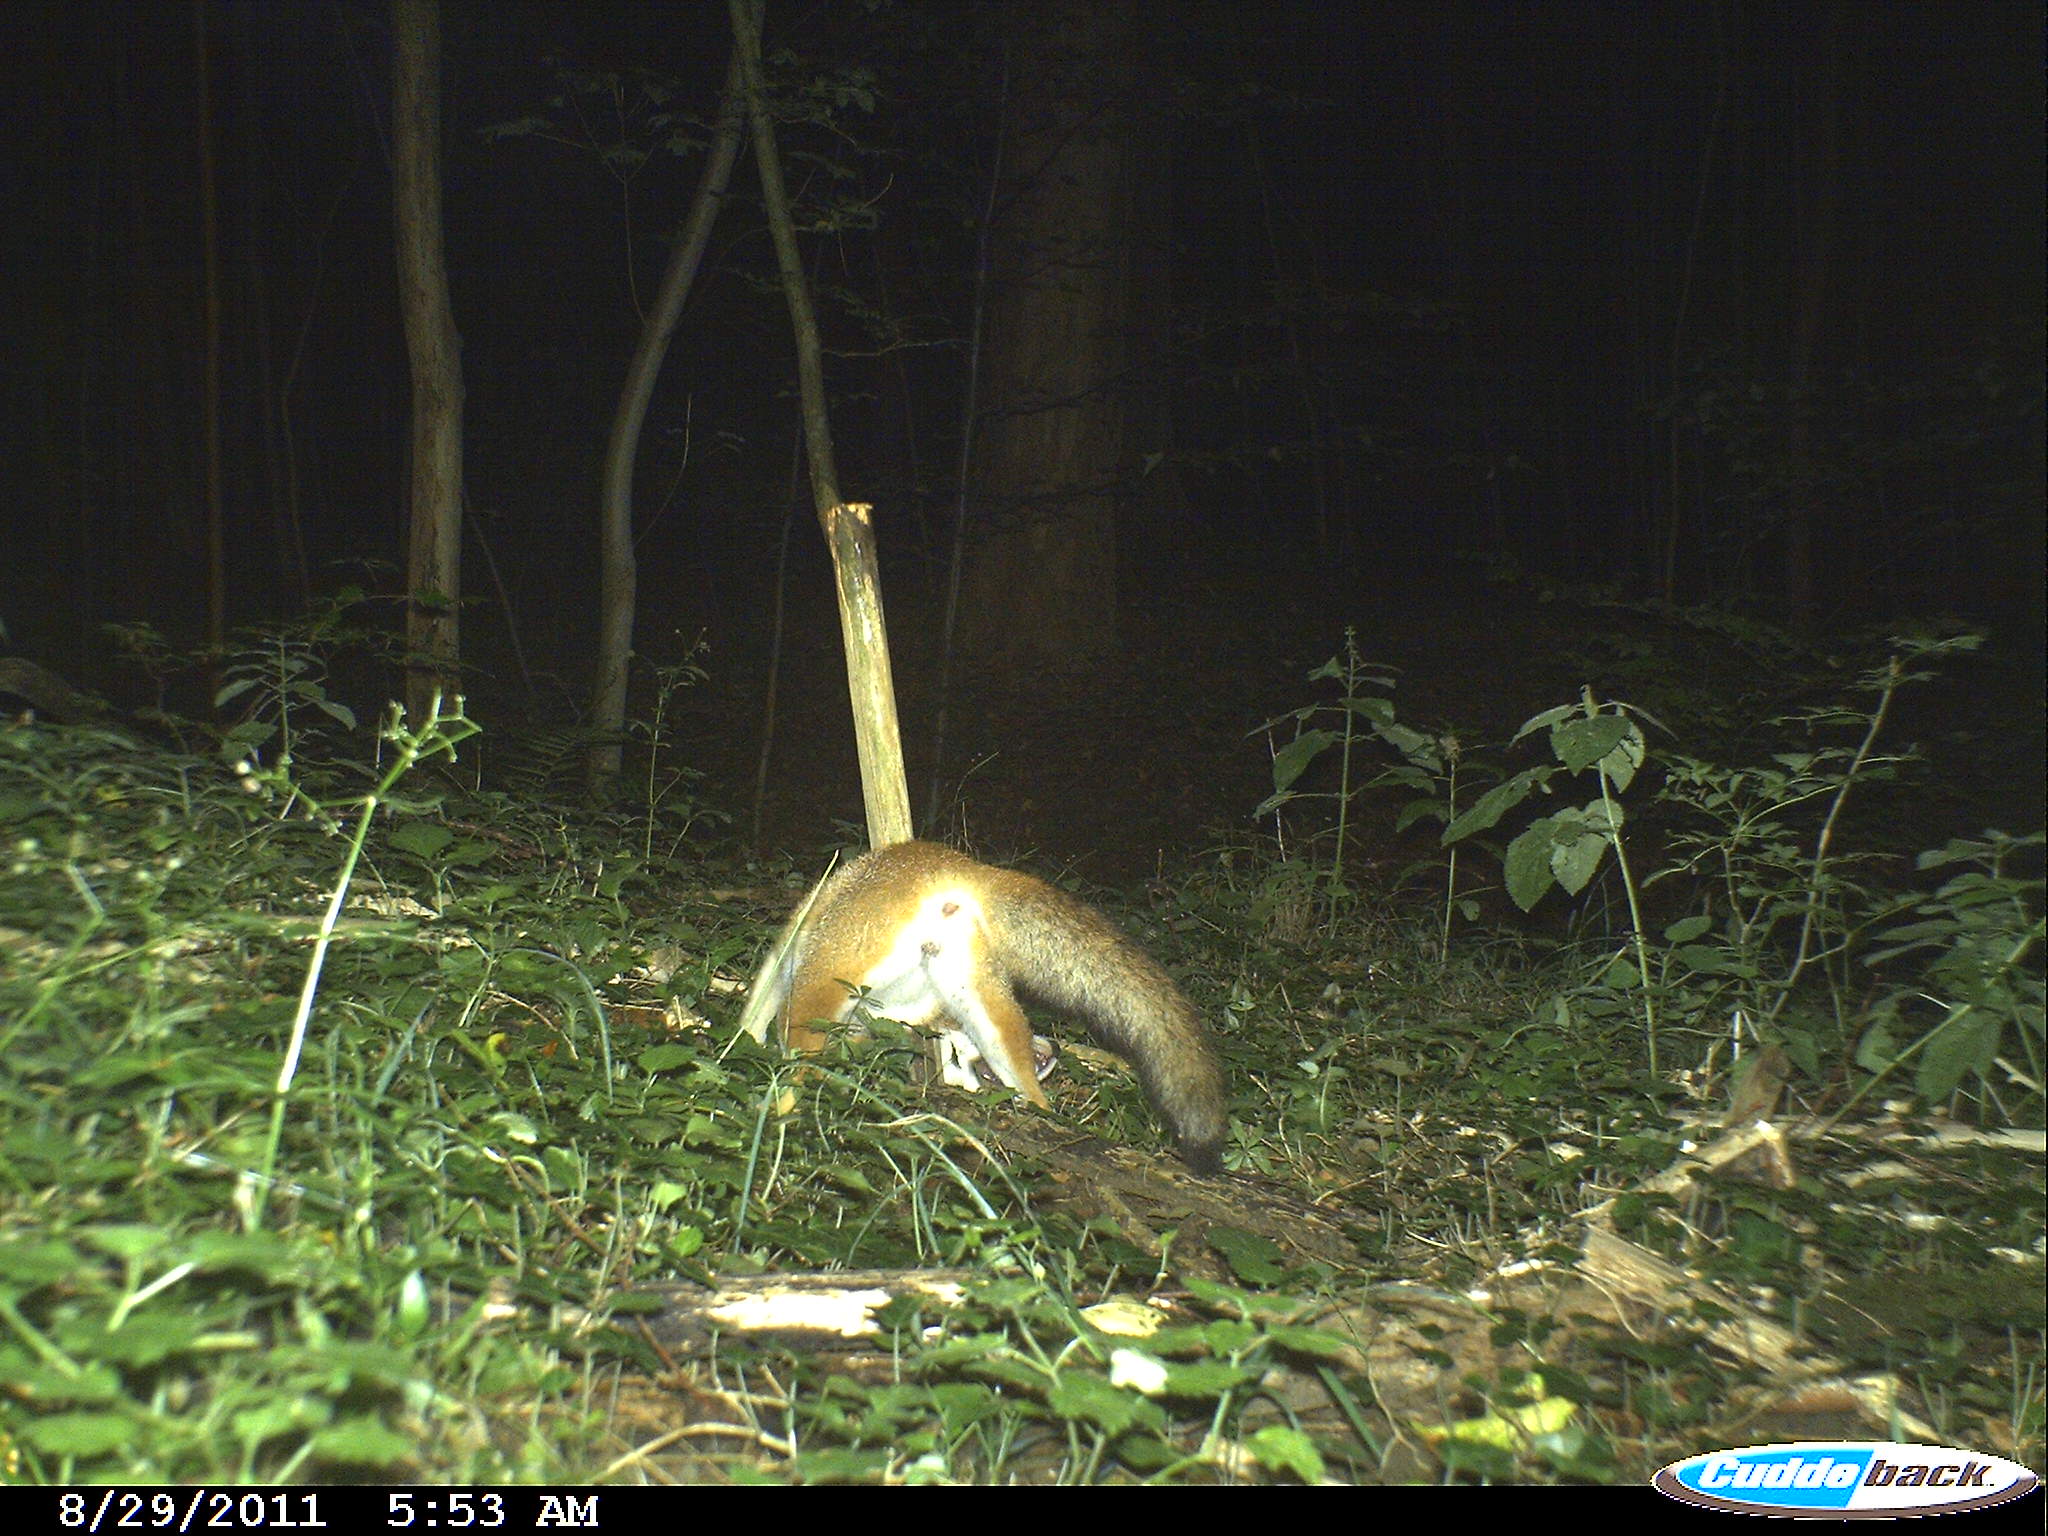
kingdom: Animalia
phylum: Chordata
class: Mammalia
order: Carnivora
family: Canidae
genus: Vulpes
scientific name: Vulpes vulpes
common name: Red fox
